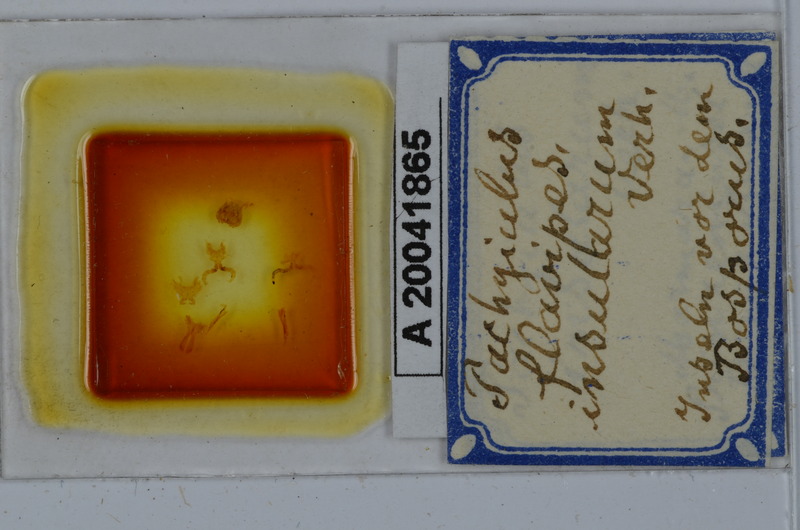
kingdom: Animalia
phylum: Arthropoda
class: Diplopoda
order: Julida
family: Julidae
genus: Pachyiulus
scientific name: Pachyiulus flavipes
